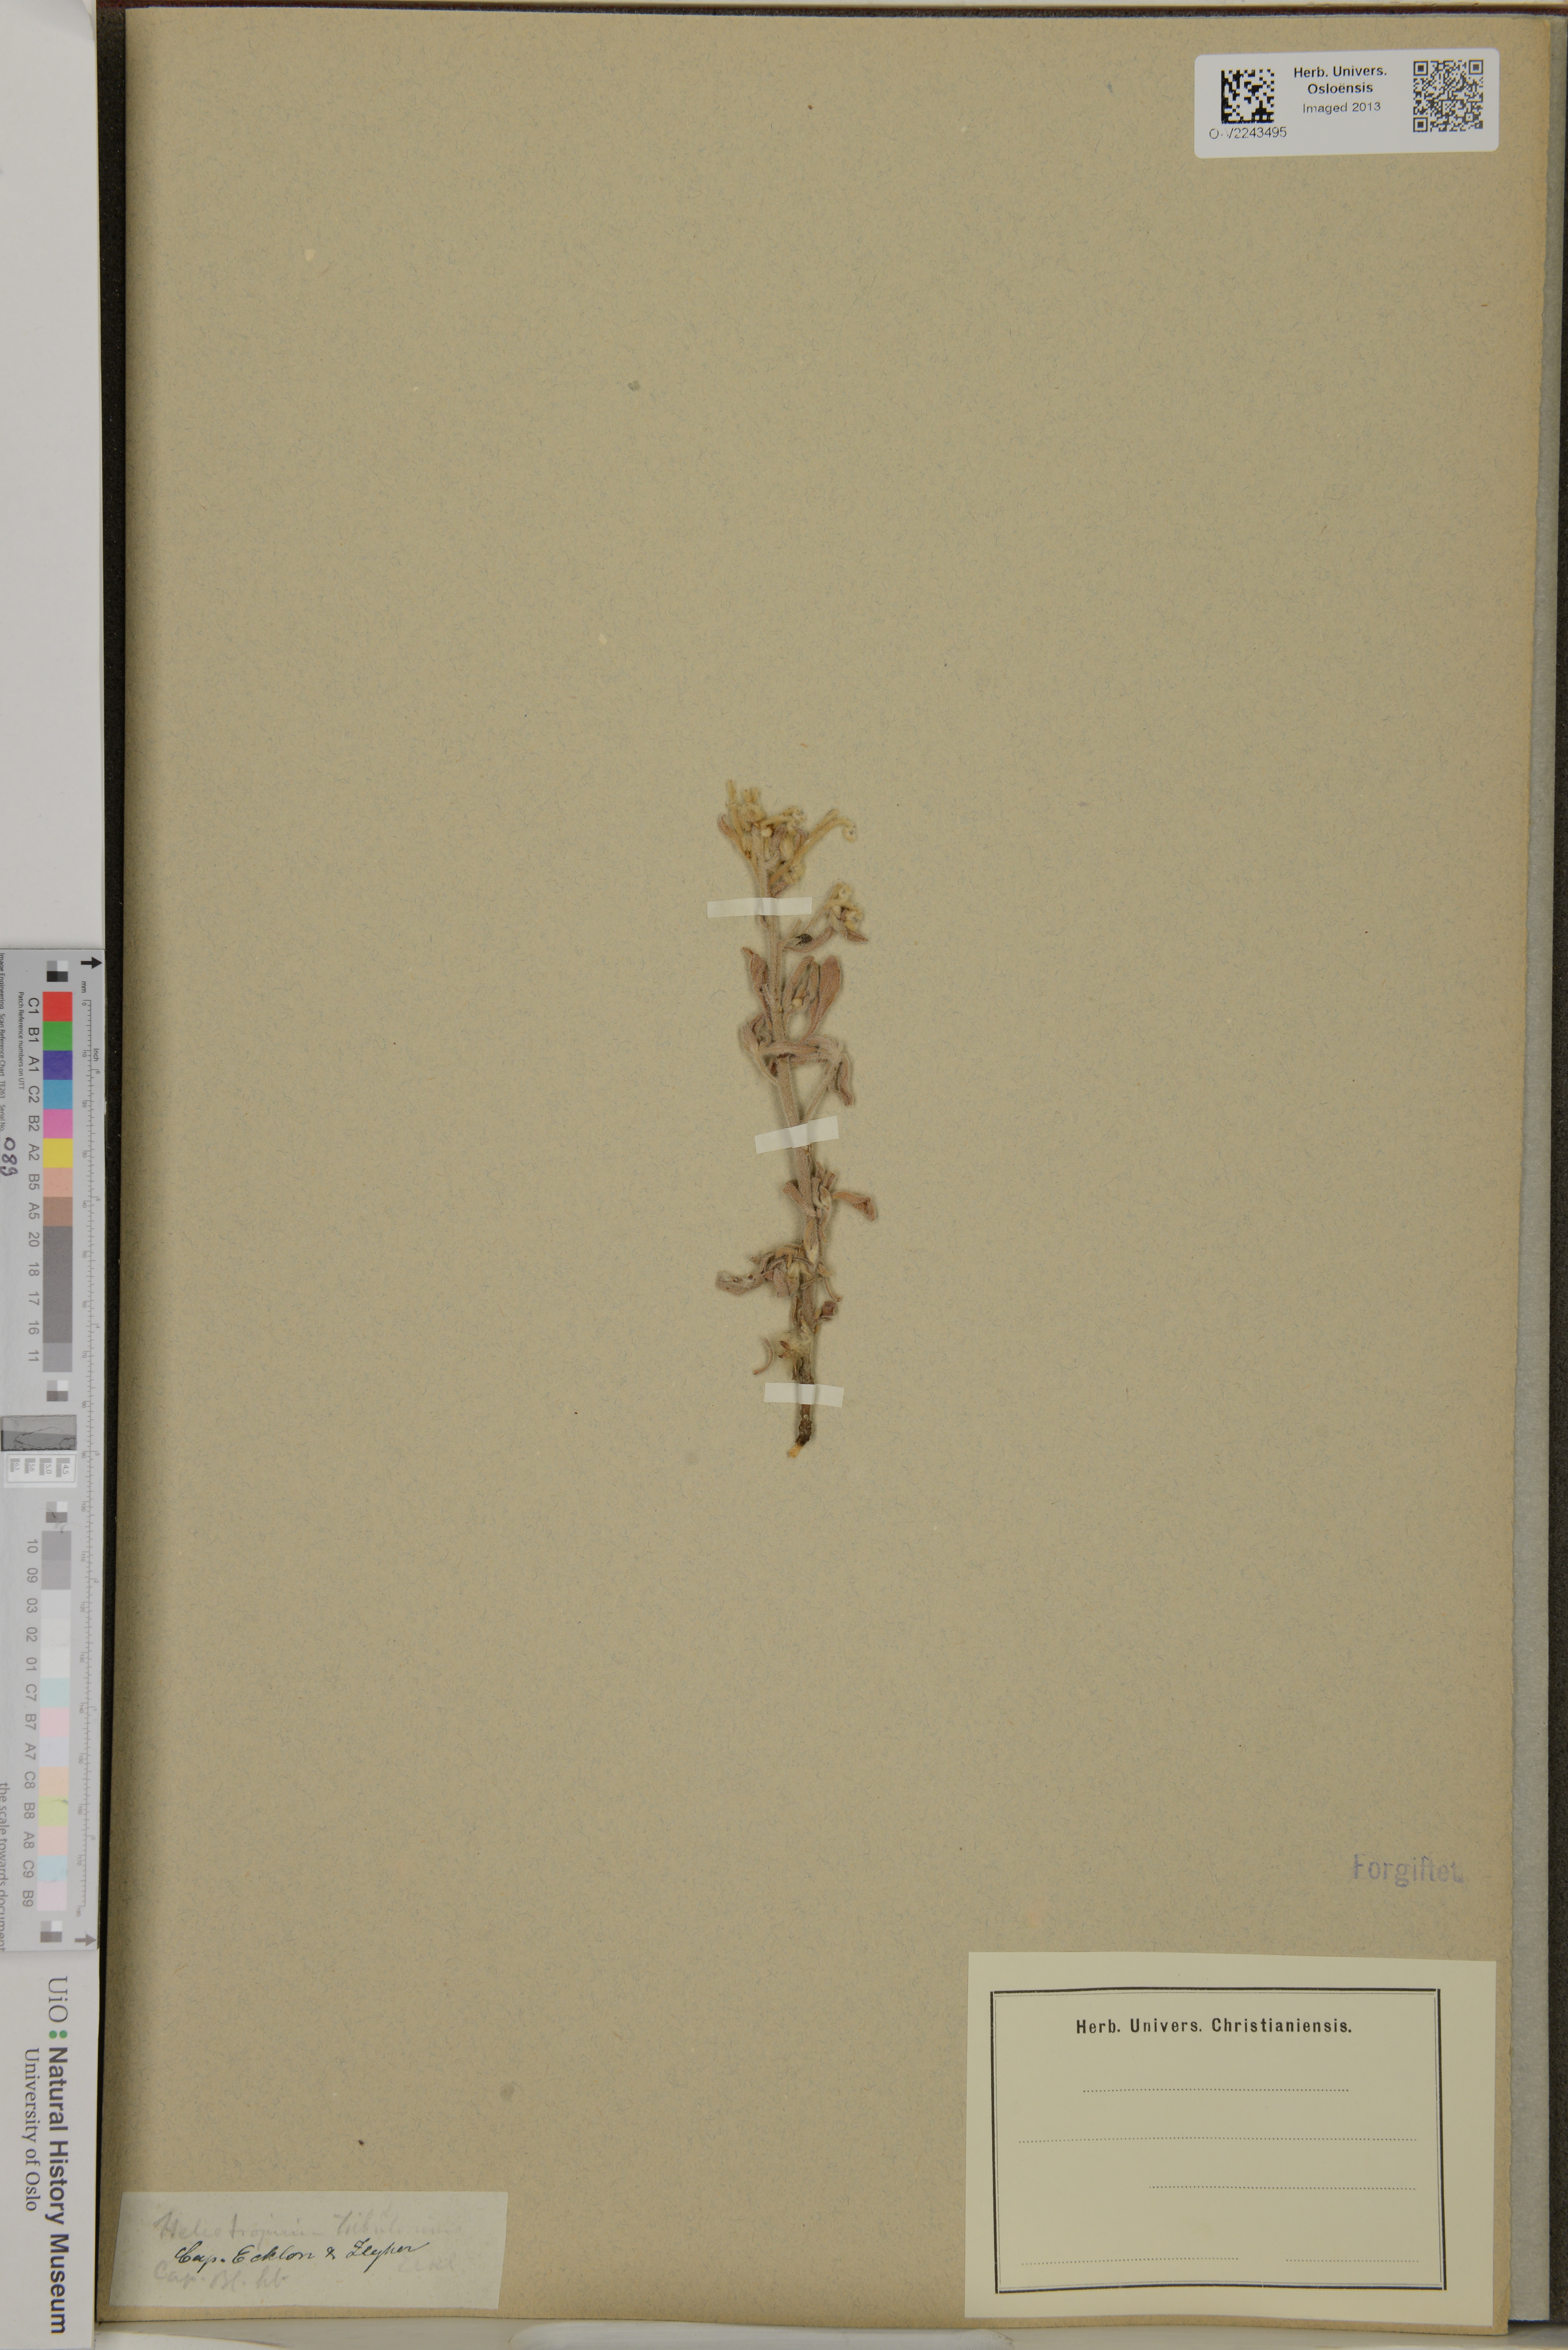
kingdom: Plantae
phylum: Tracheophyta
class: Magnoliopsida
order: Boraginales
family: Heliotropiaceae
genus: Heliotropium
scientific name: Heliotropium tubulosum
